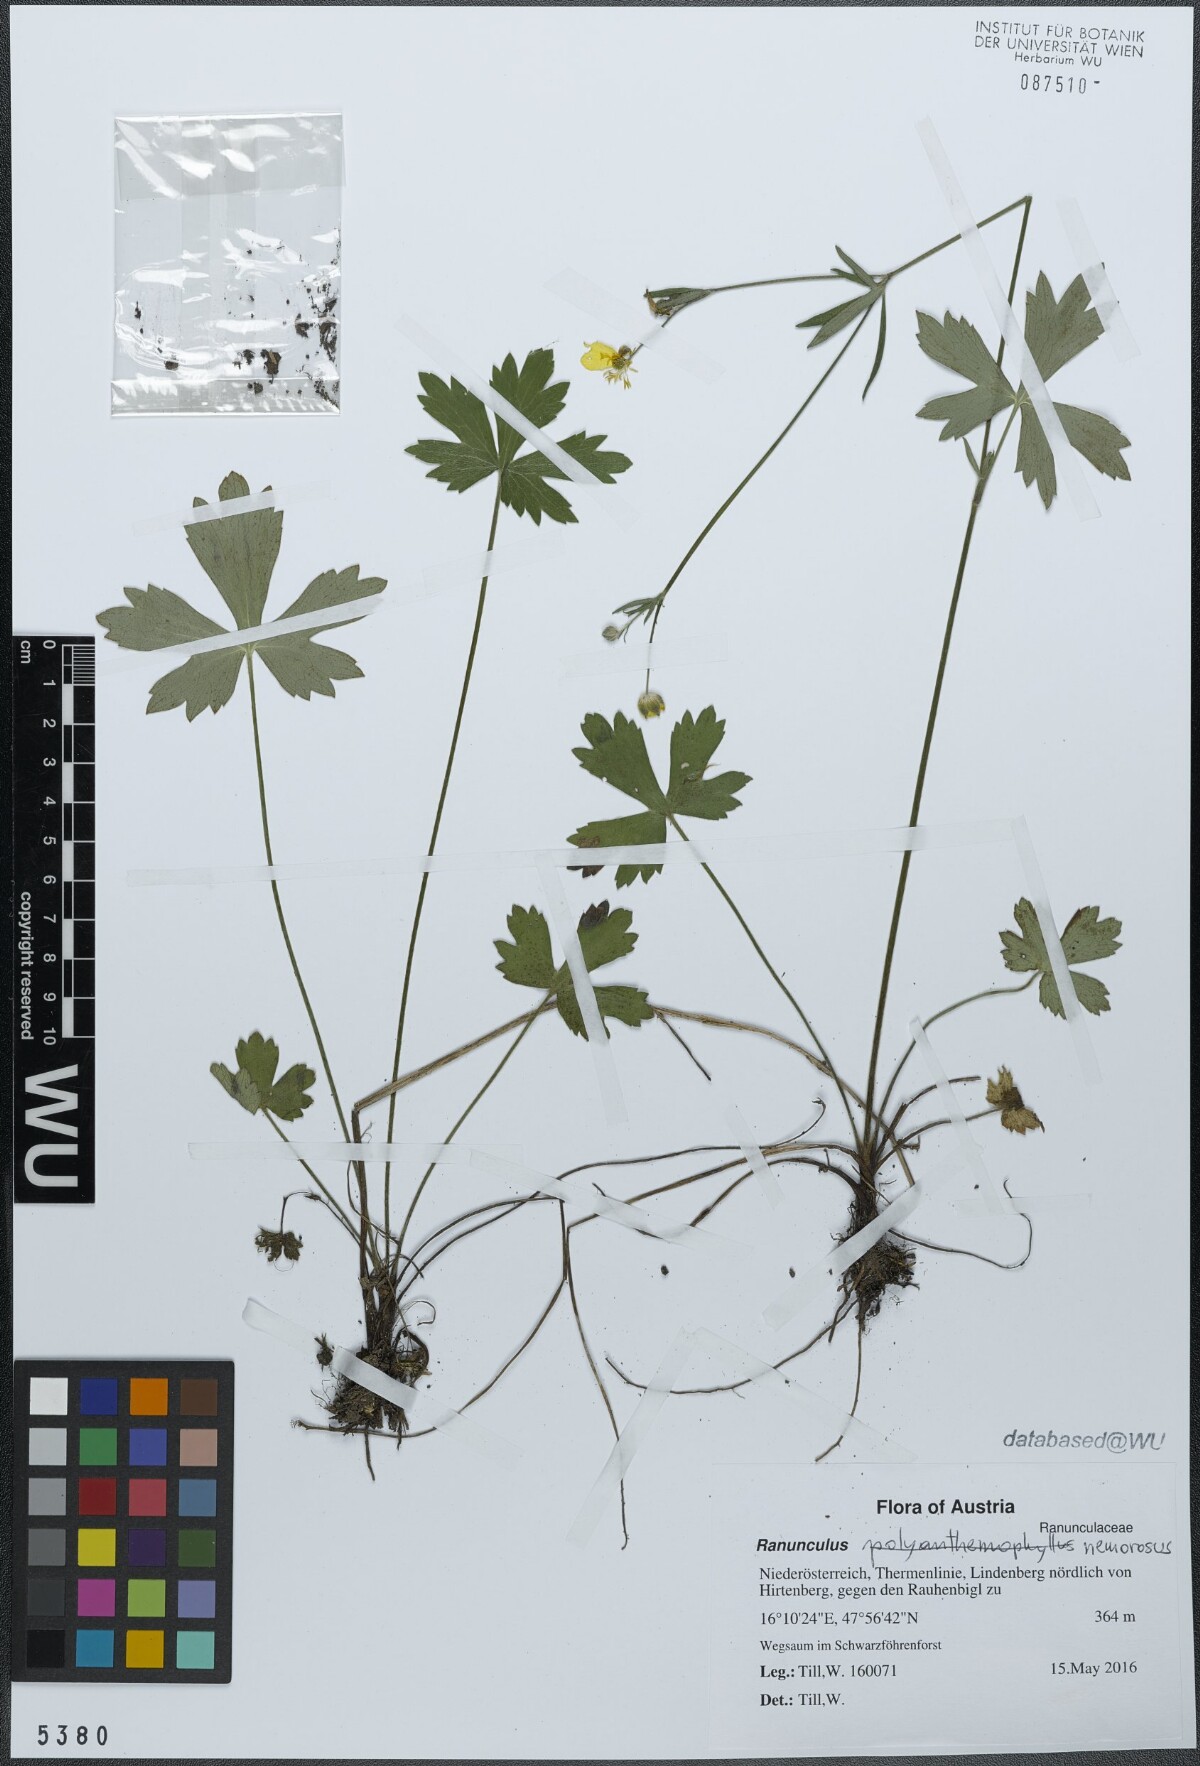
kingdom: Plantae
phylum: Tracheophyta
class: Magnoliopsida
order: Ranunculales
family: Ranunculaceae
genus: Ranunculus
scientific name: Ranunculus polyanthemos
